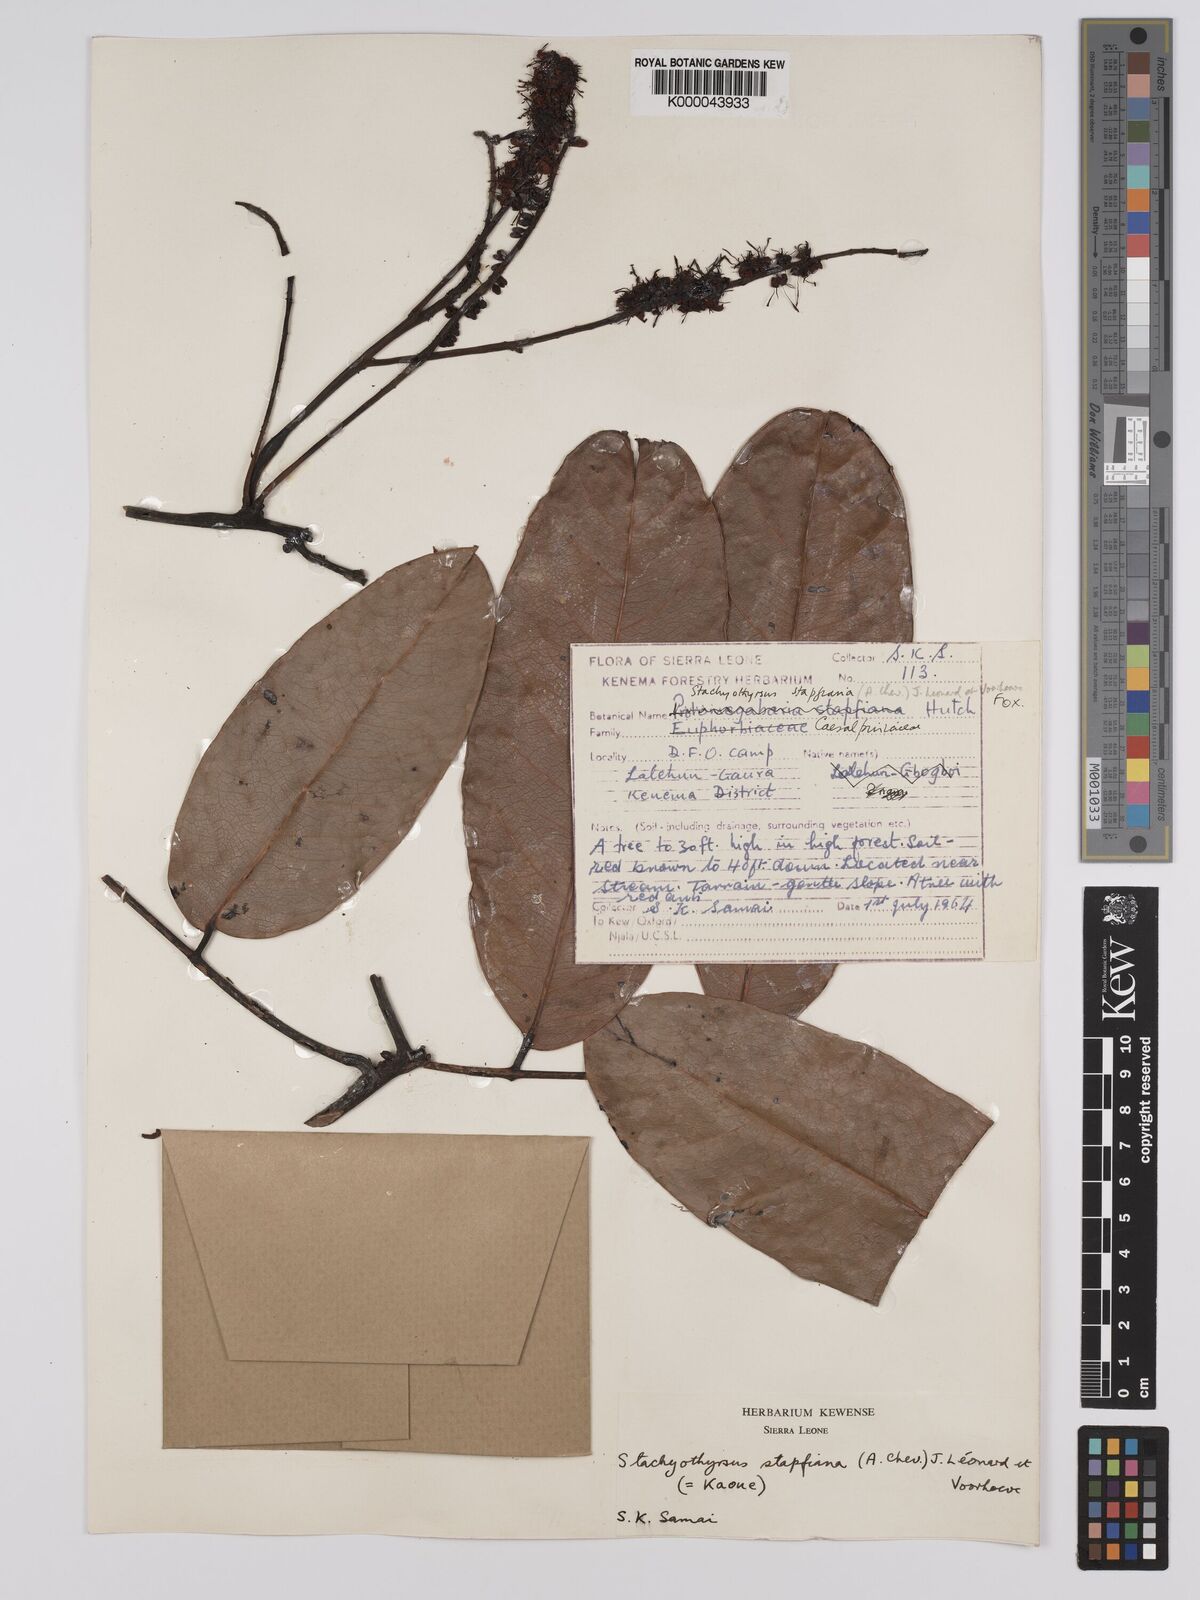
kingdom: Plantae
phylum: Tracheophyta
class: Magnoliopsida
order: Fabales
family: Fabaceae
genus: Stachyothyrsus
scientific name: Stachyothyrsus
